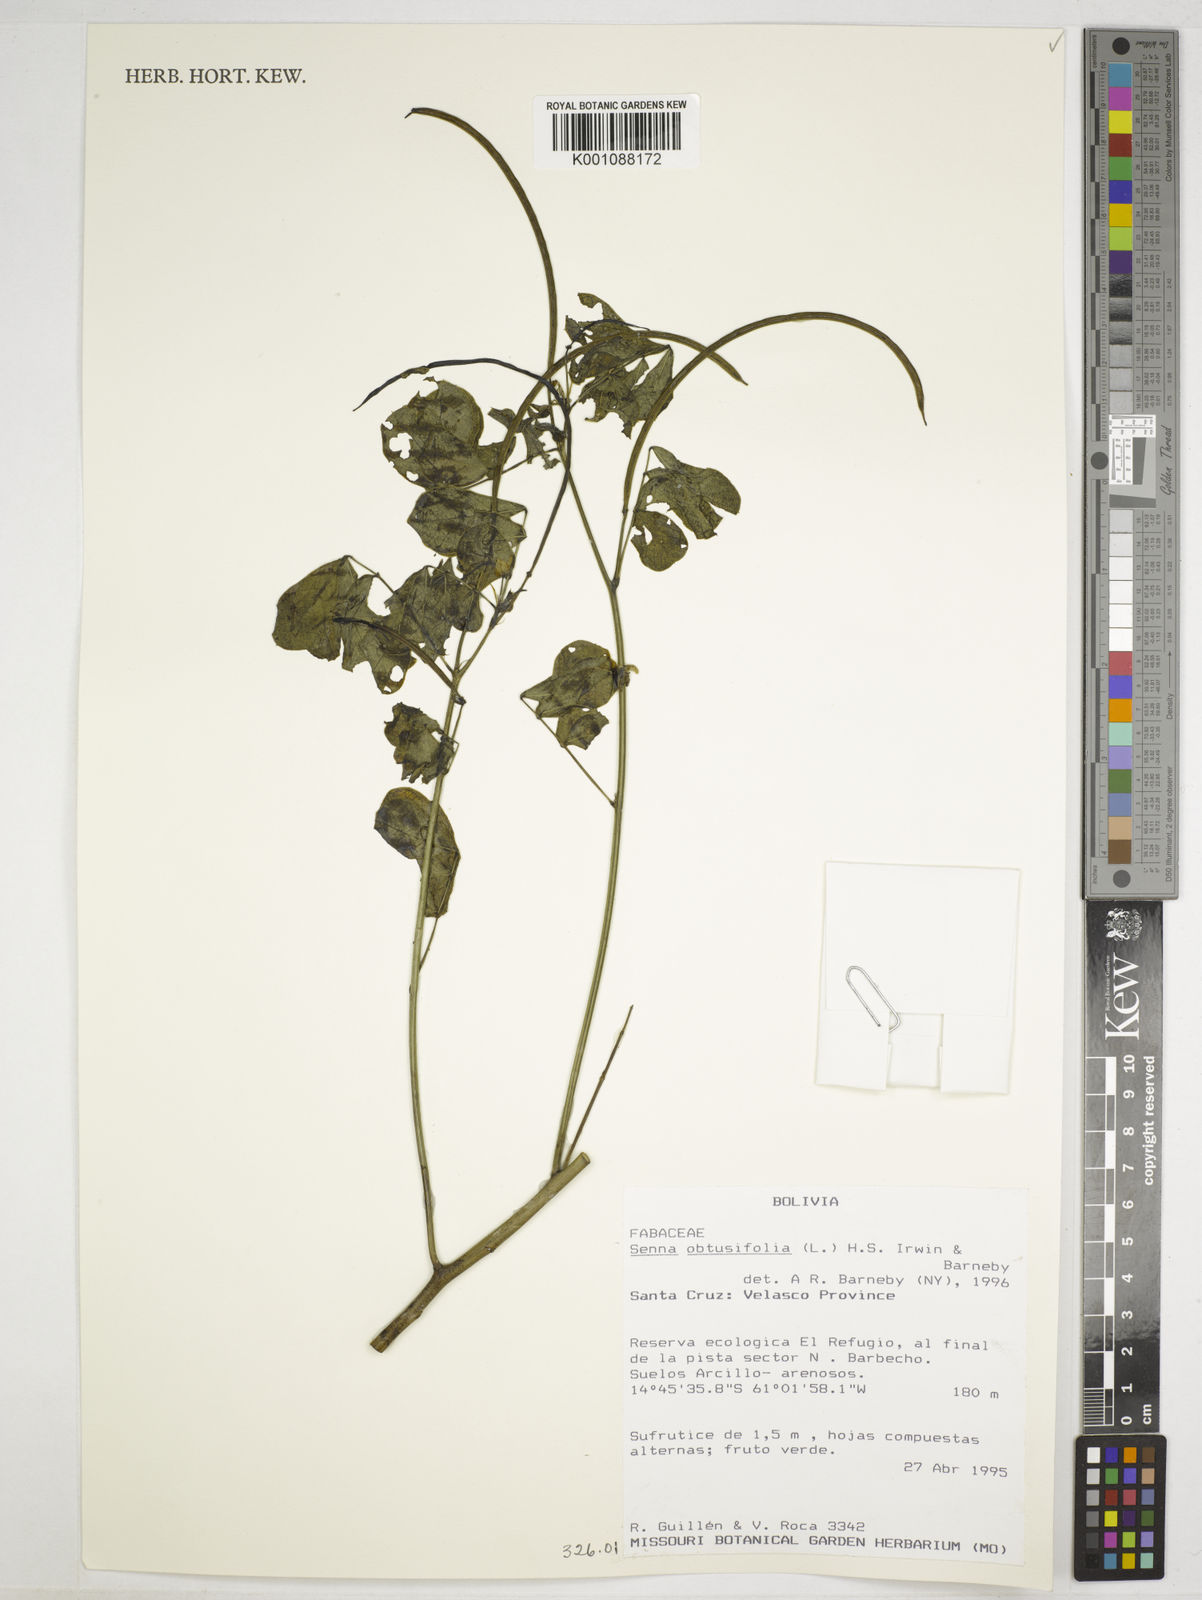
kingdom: Plantae
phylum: Tracheophyta
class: Magnoliopsida
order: Fabales
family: Fabaceae
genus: Senna
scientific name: Senna obtusifolia
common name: Java-bean
